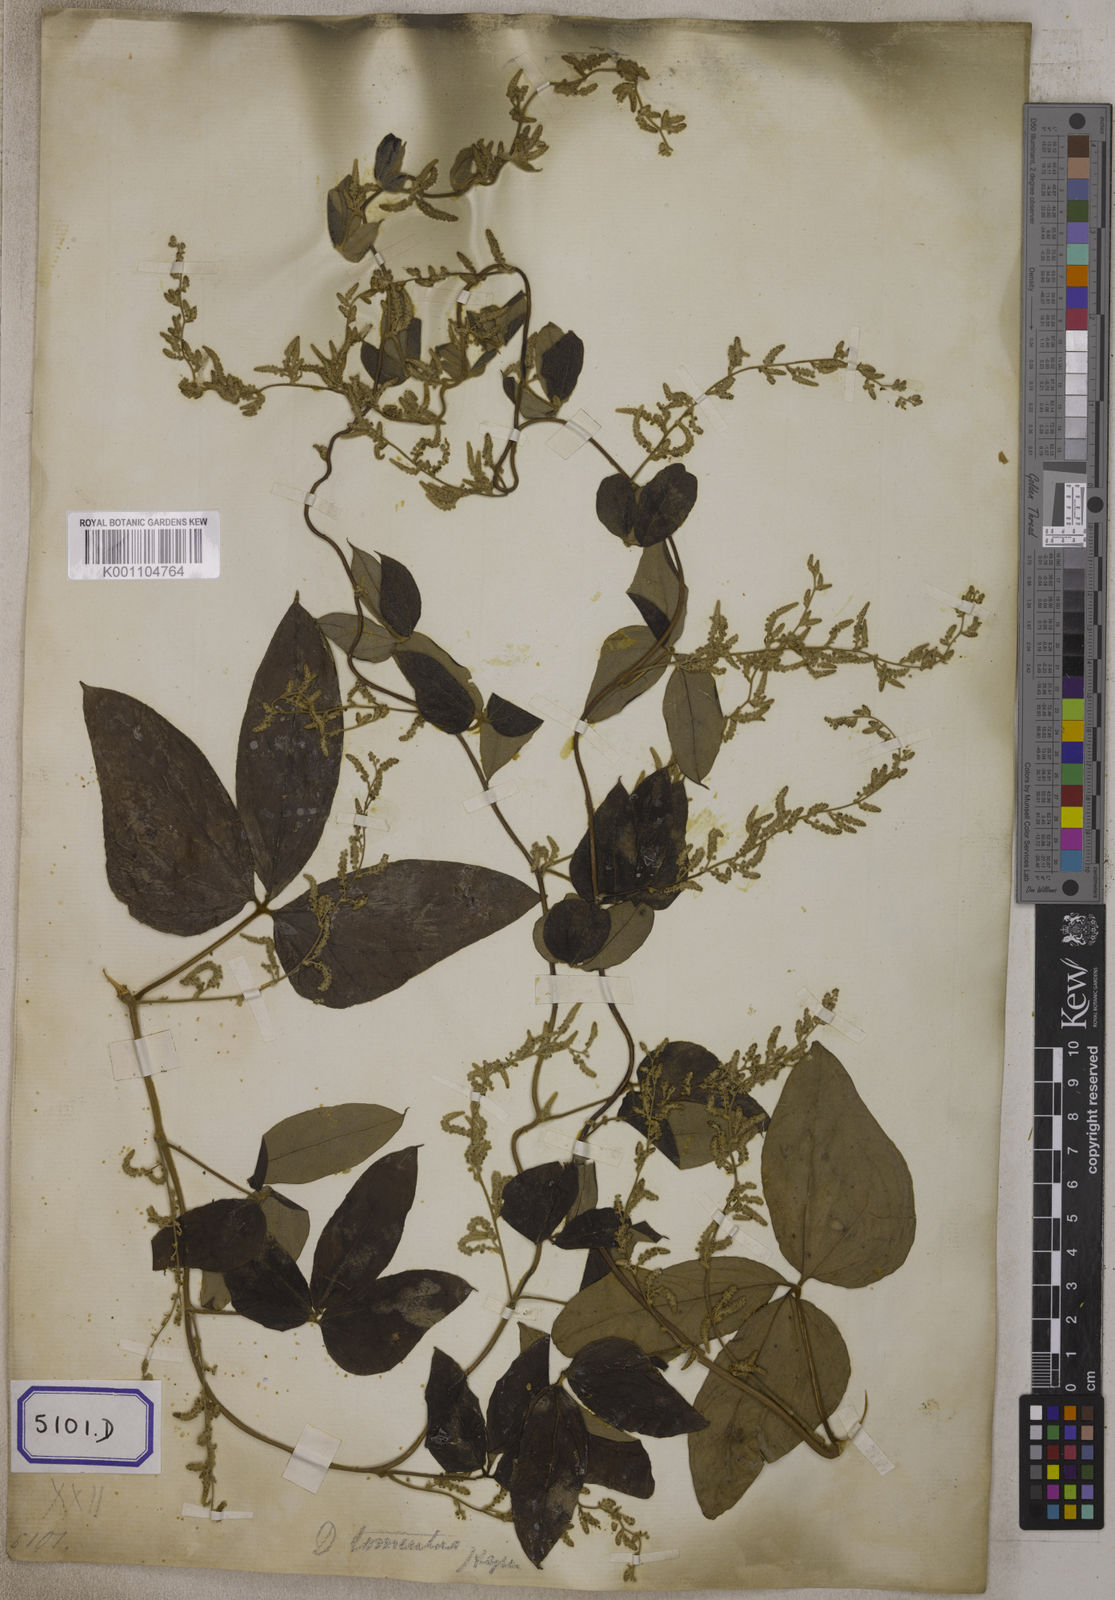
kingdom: Plantae
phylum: Tracheophyta
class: Liliopsida
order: Dioscoreales
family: Dioscoreaceae
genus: Dioscorea
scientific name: Dioscorea
